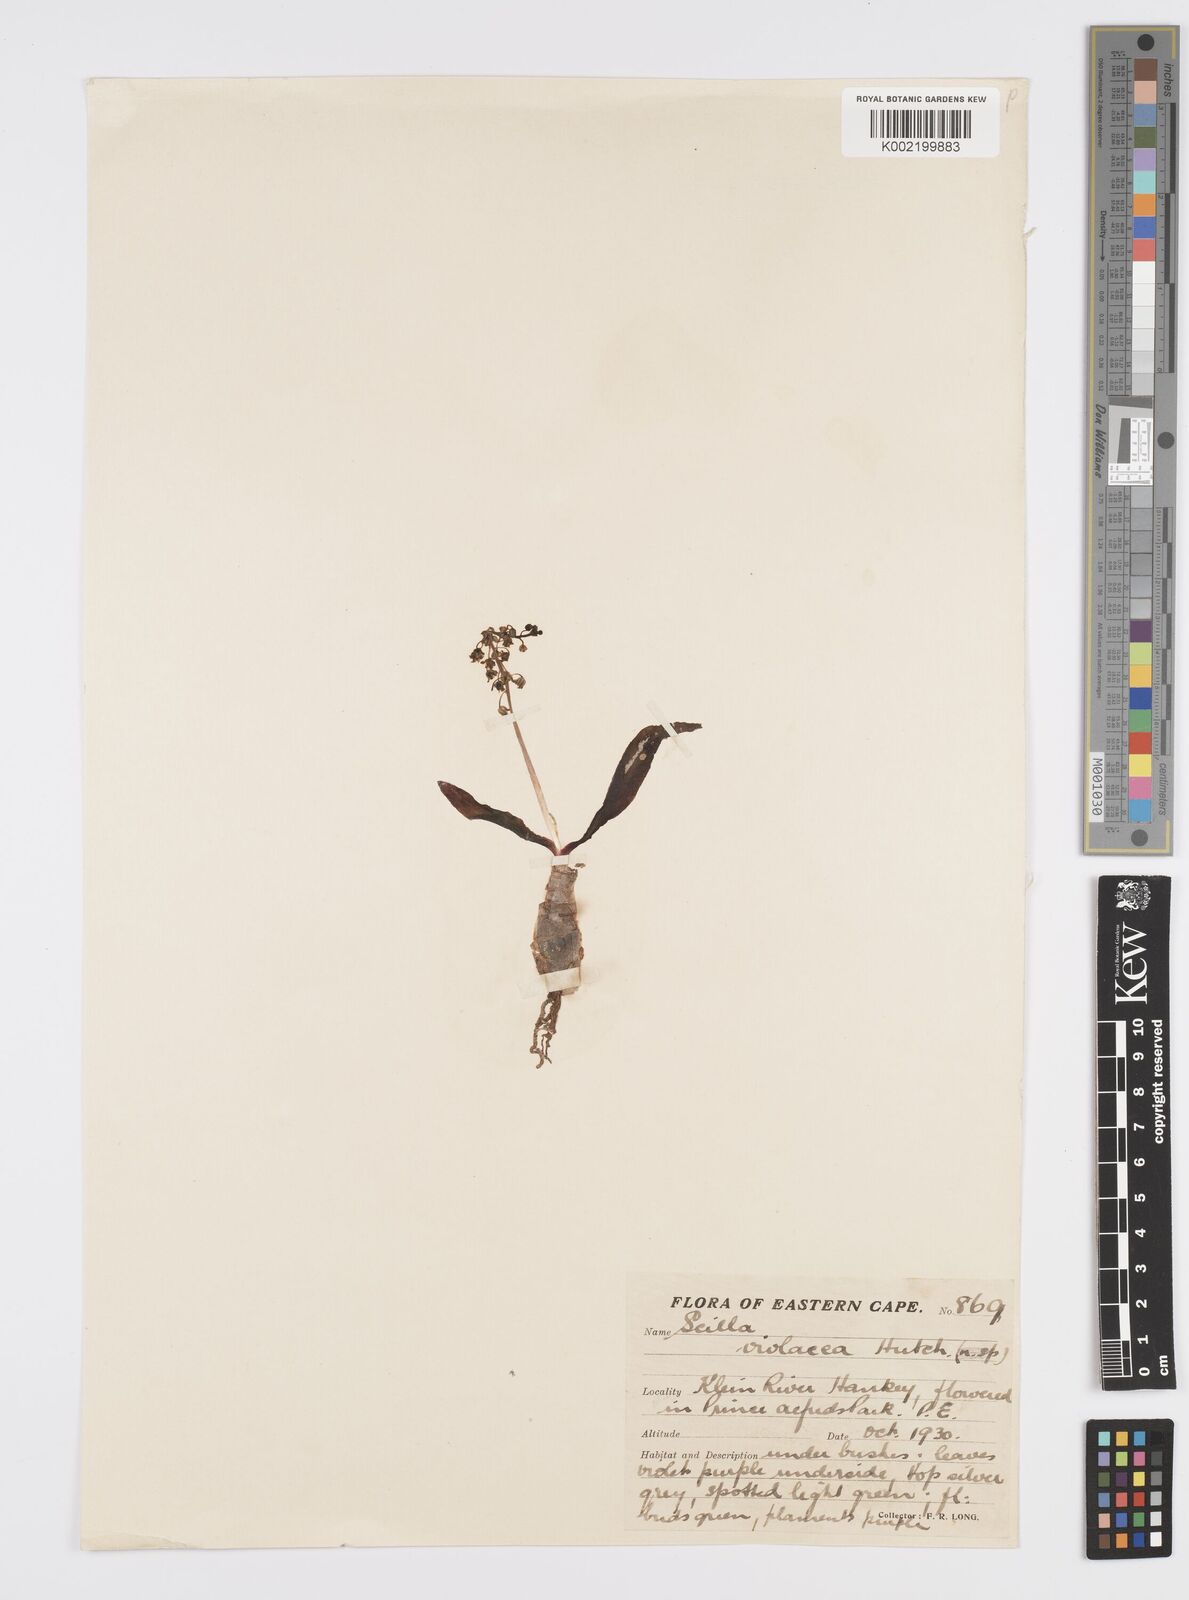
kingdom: Plantae
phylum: Tracheophyta
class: Liliopsida
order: Asparagales
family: Asparagaceae
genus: Ledebouria
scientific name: Ledebouria socialis
